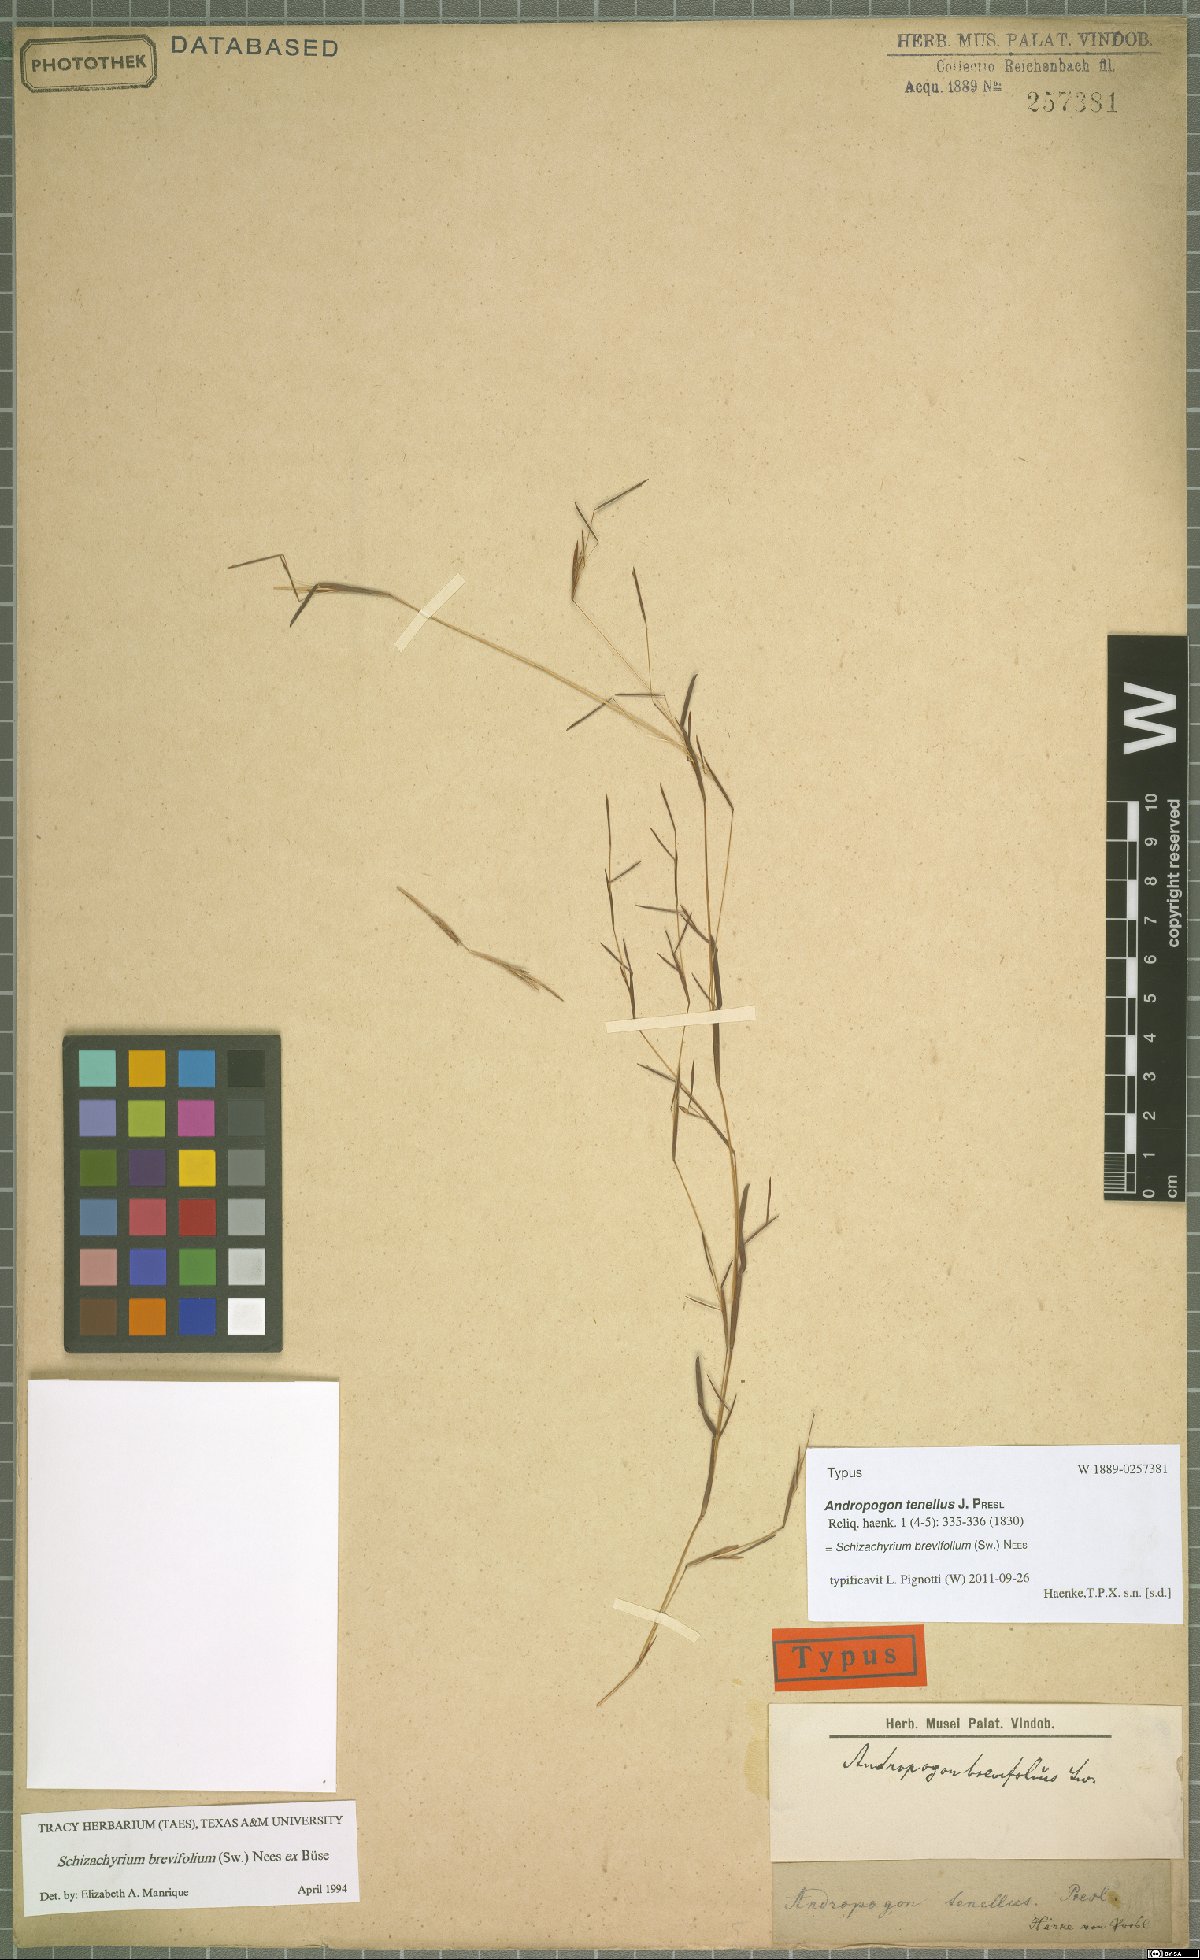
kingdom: Plantae
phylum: Tracheophyta
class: Liliopsida
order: Poales
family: Poaceae
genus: Schizachyrium
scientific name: Schizachyrium brevifolium
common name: Serillo dulce
